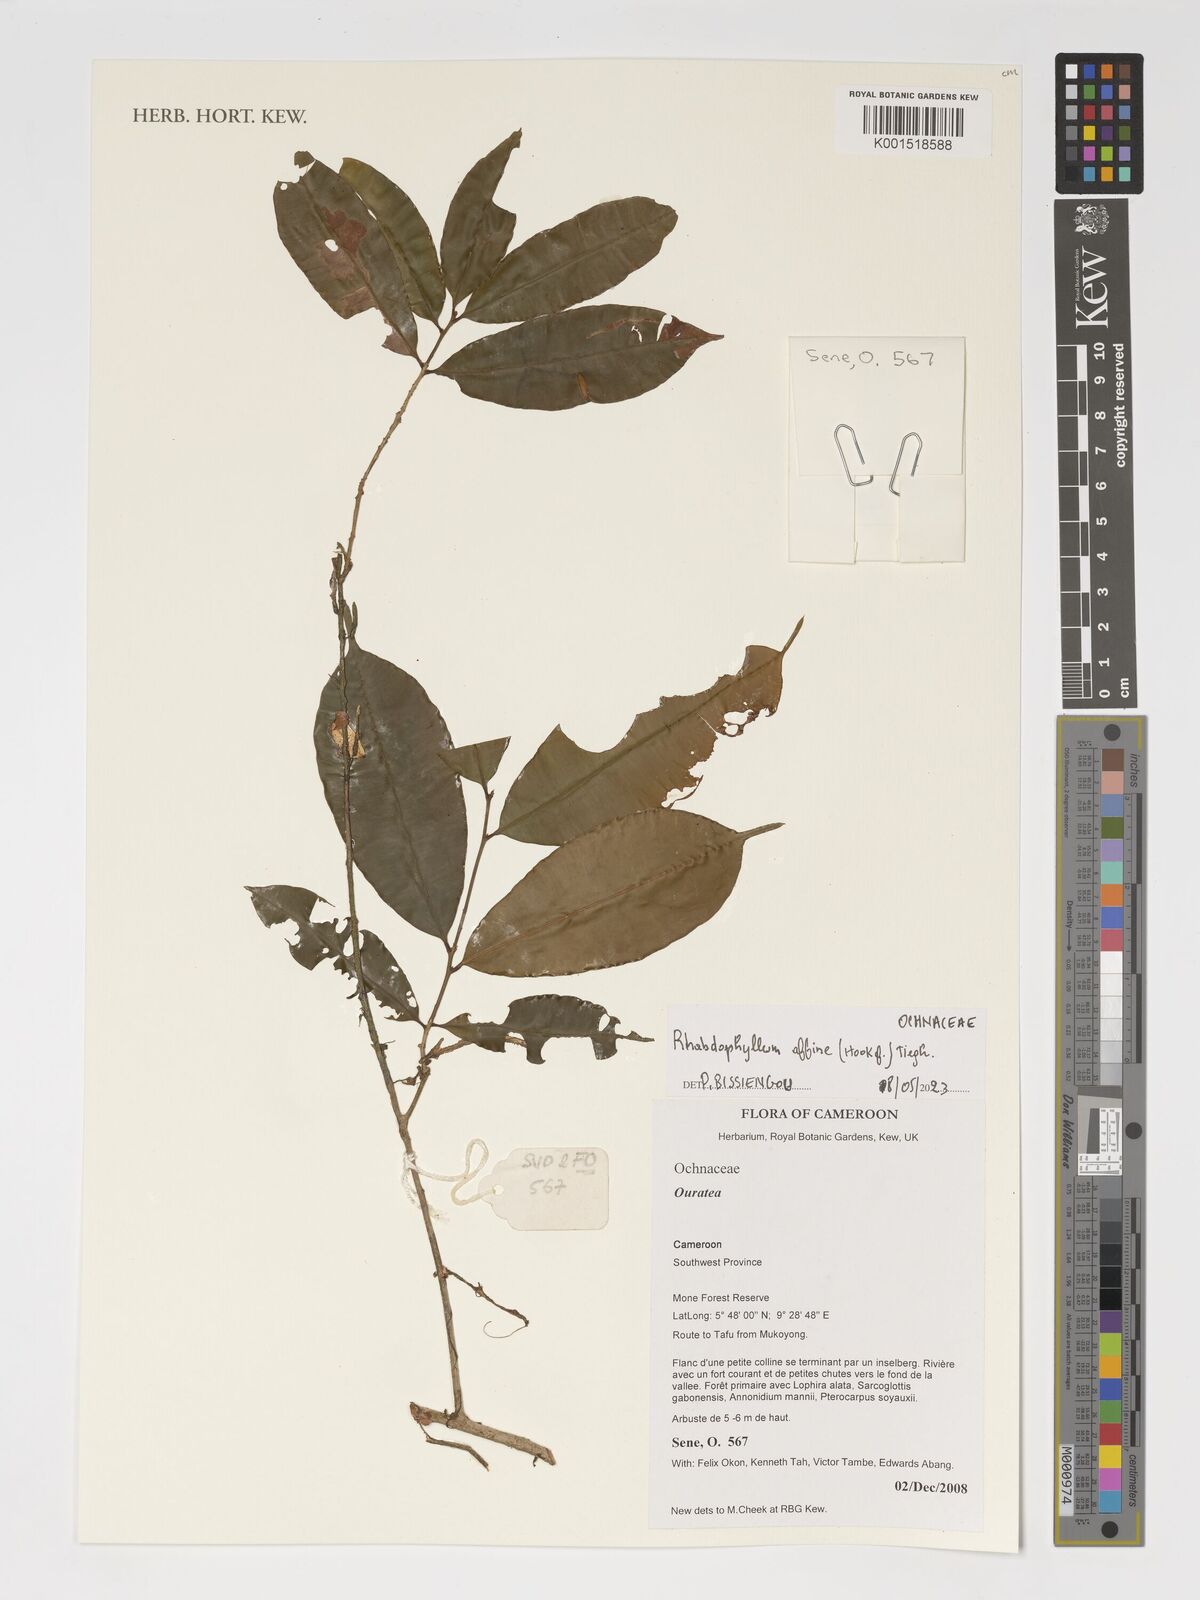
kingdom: Plantae
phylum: Tracheophyta
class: Magnoliopsida
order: Malpighiales
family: Ochnaceae
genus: Rhabdophyllum
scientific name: Rhabdophyllum affine
